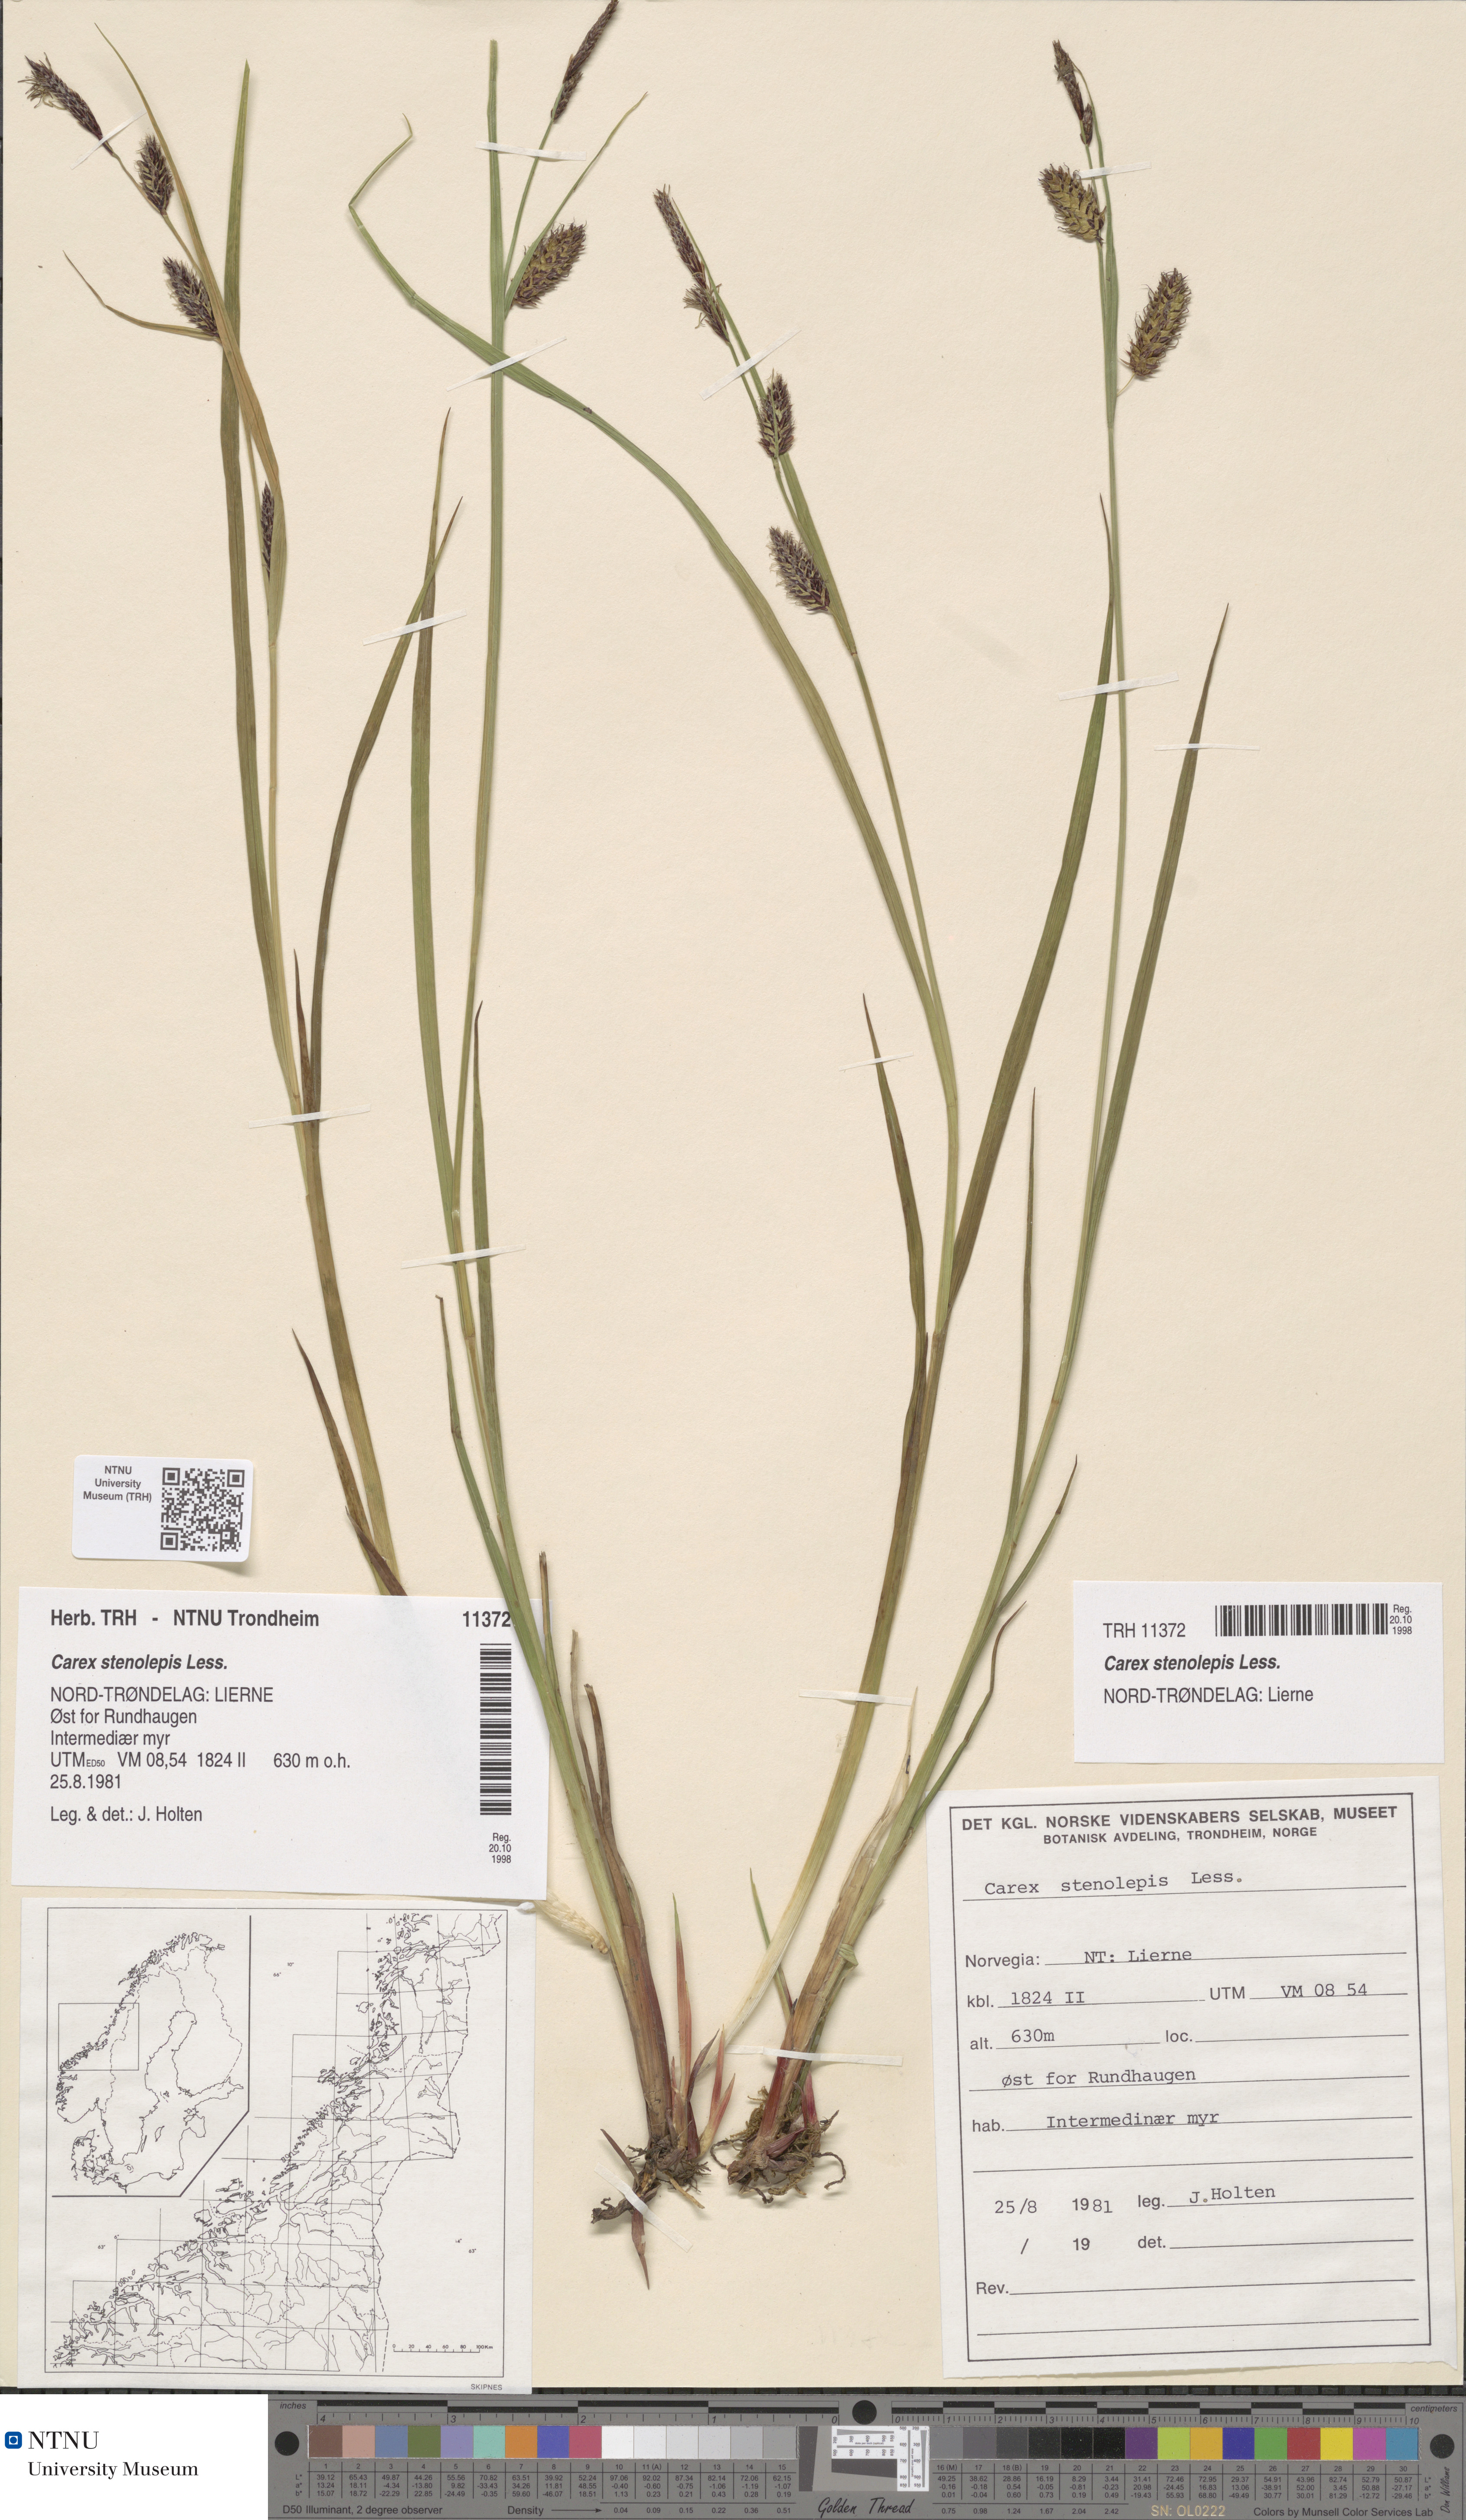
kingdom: Plantae
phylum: Tracheophyta
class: Liliopsida
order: Poales
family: Cyperaceae
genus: Carex
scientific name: Carex grahamii
